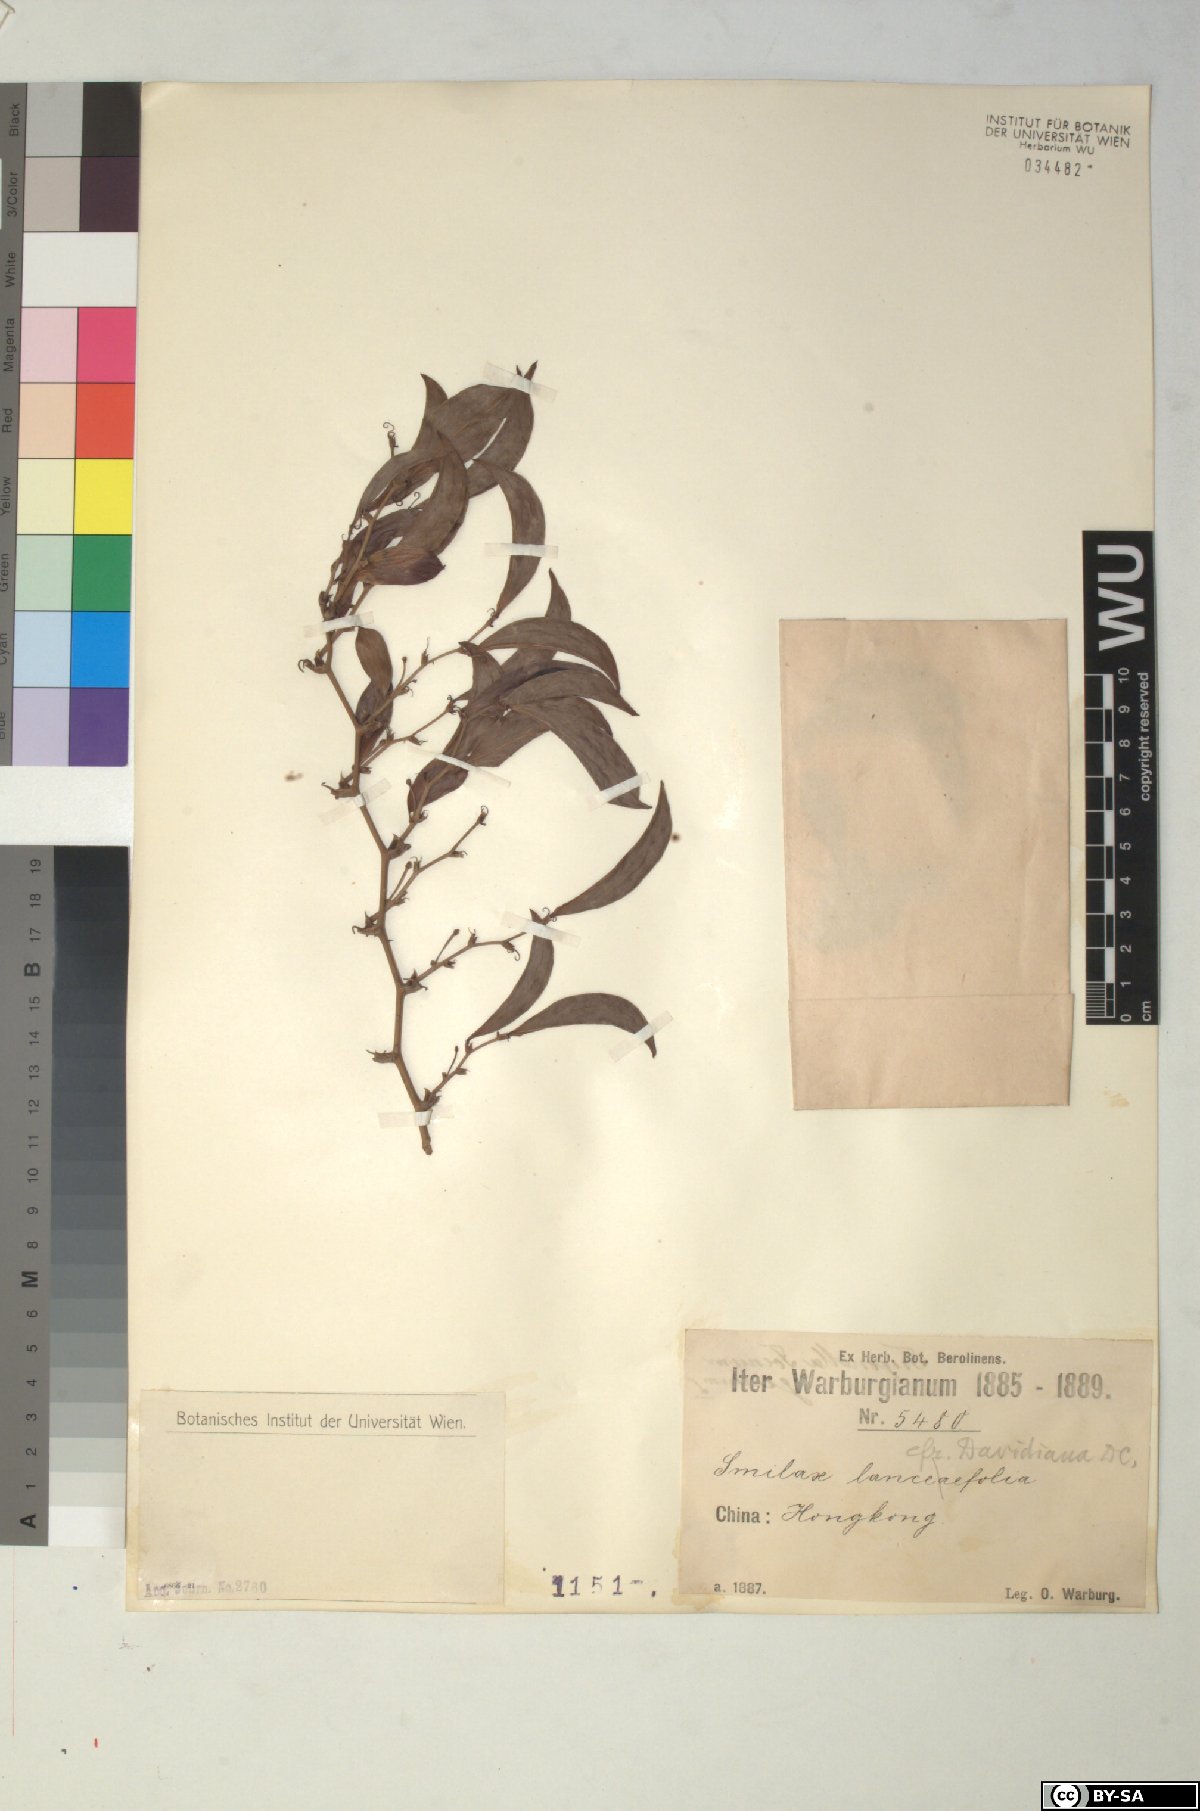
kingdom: Plantae
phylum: Tracheophyta
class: Liliopsida
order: Liliales
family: Smilacaceae
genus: Smilax
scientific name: Smilax davidiana
